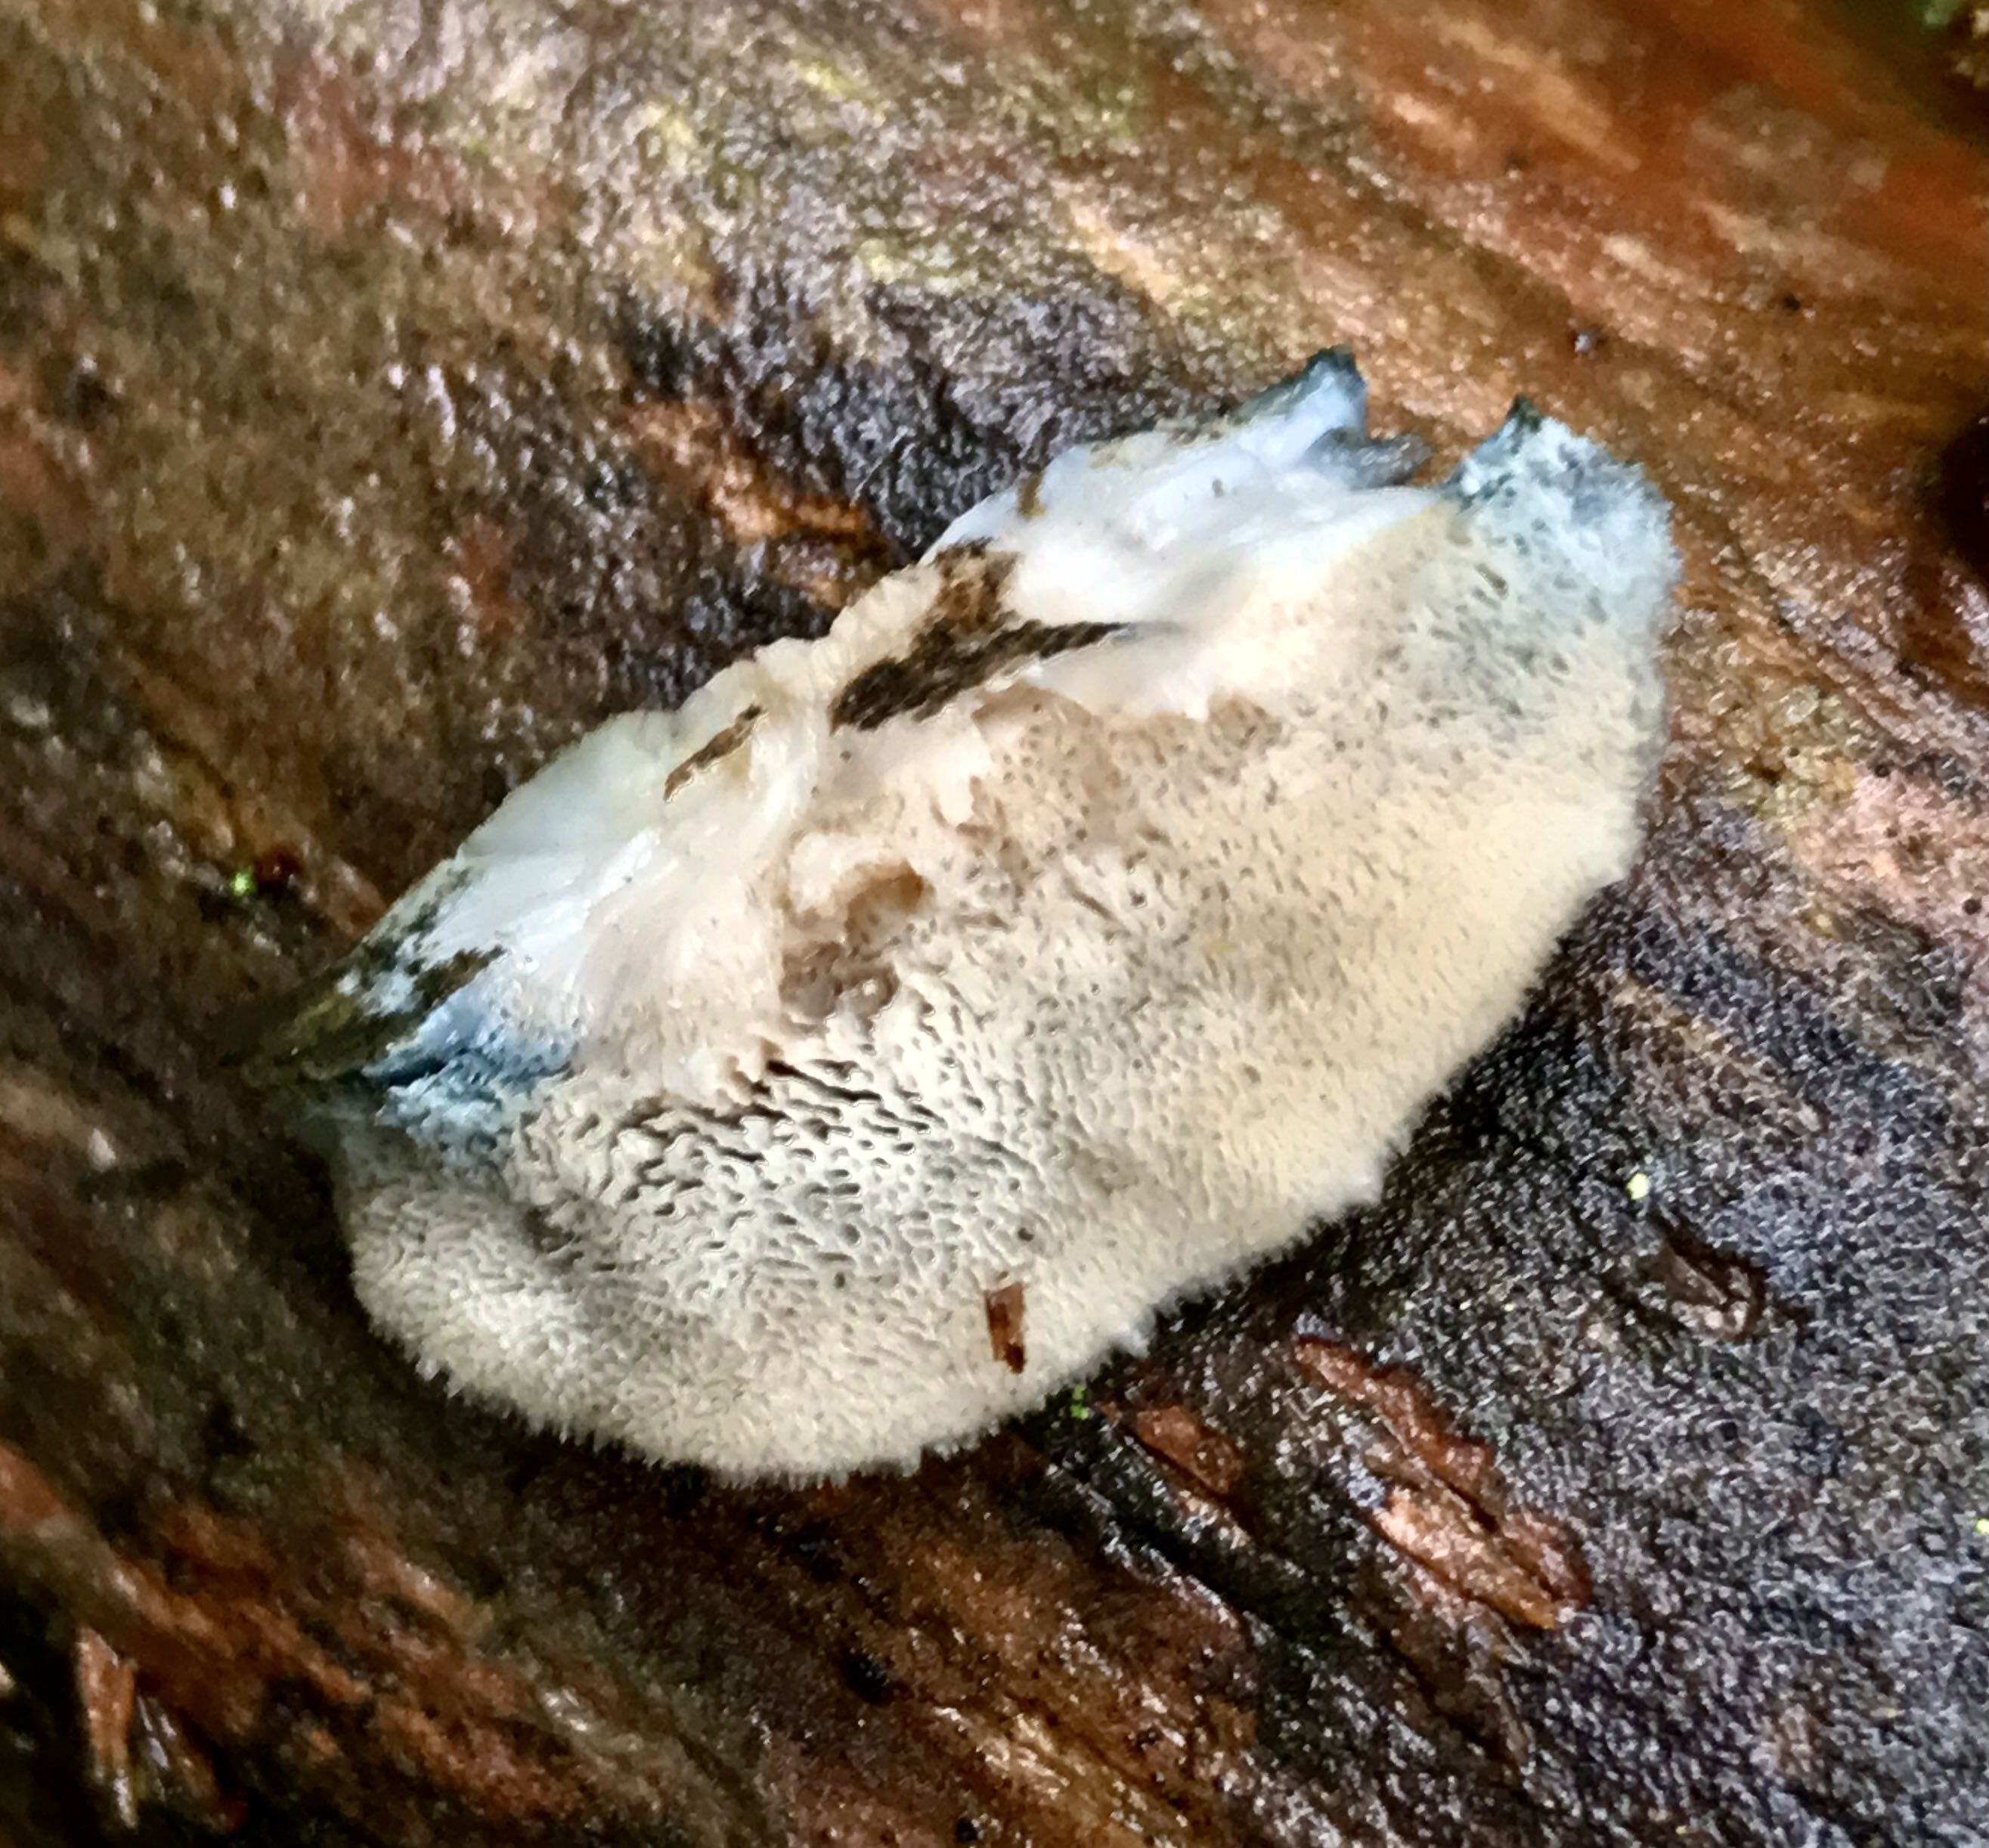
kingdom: Fungi
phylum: Basidiomycota
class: Agaricomycetes
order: Polyporales
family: Polyporaceae
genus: Cyanosporus
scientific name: Cyanosporus caesius
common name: blålig kødporesvamp
